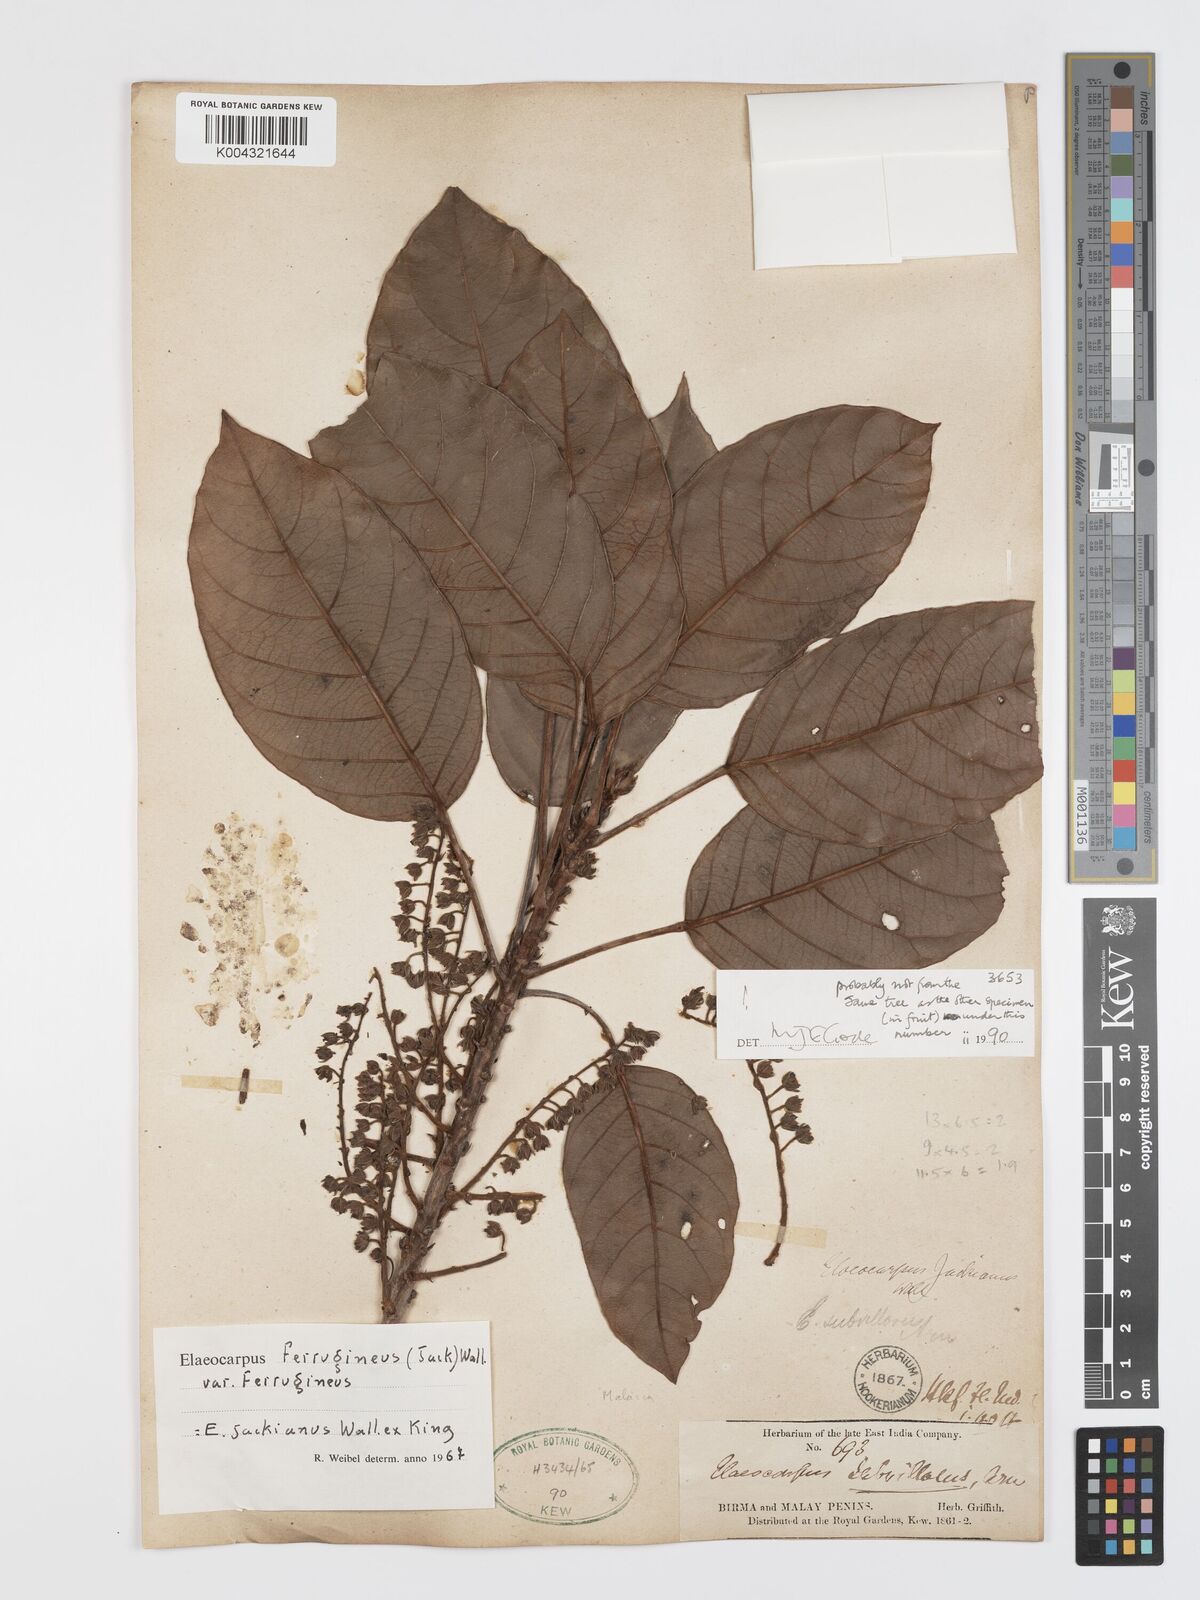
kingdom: Plantae
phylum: Tracheophyta
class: Magnoliopsida
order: Oxalidales
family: Elaeocarpaceae
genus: Elaeocarpus
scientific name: Elaeocarpus ferrugineus
